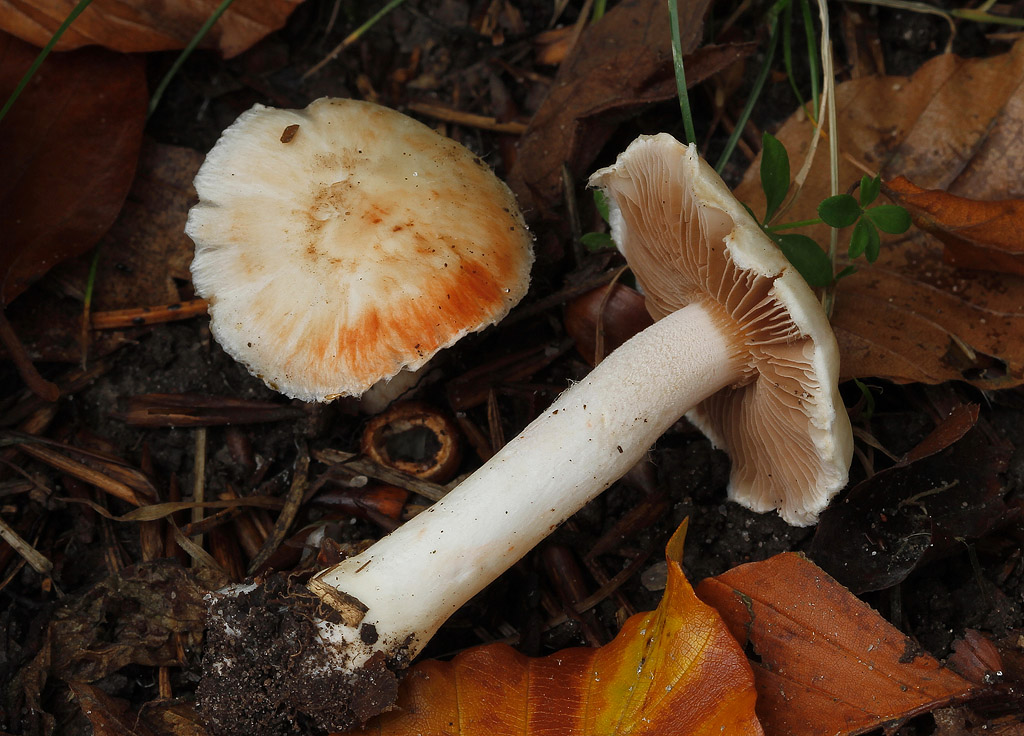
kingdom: Fungi
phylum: Basidiomycota
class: Agaricomycetes
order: Agaricales
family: Inocybaceae
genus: Inocybe
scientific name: Inocybe
